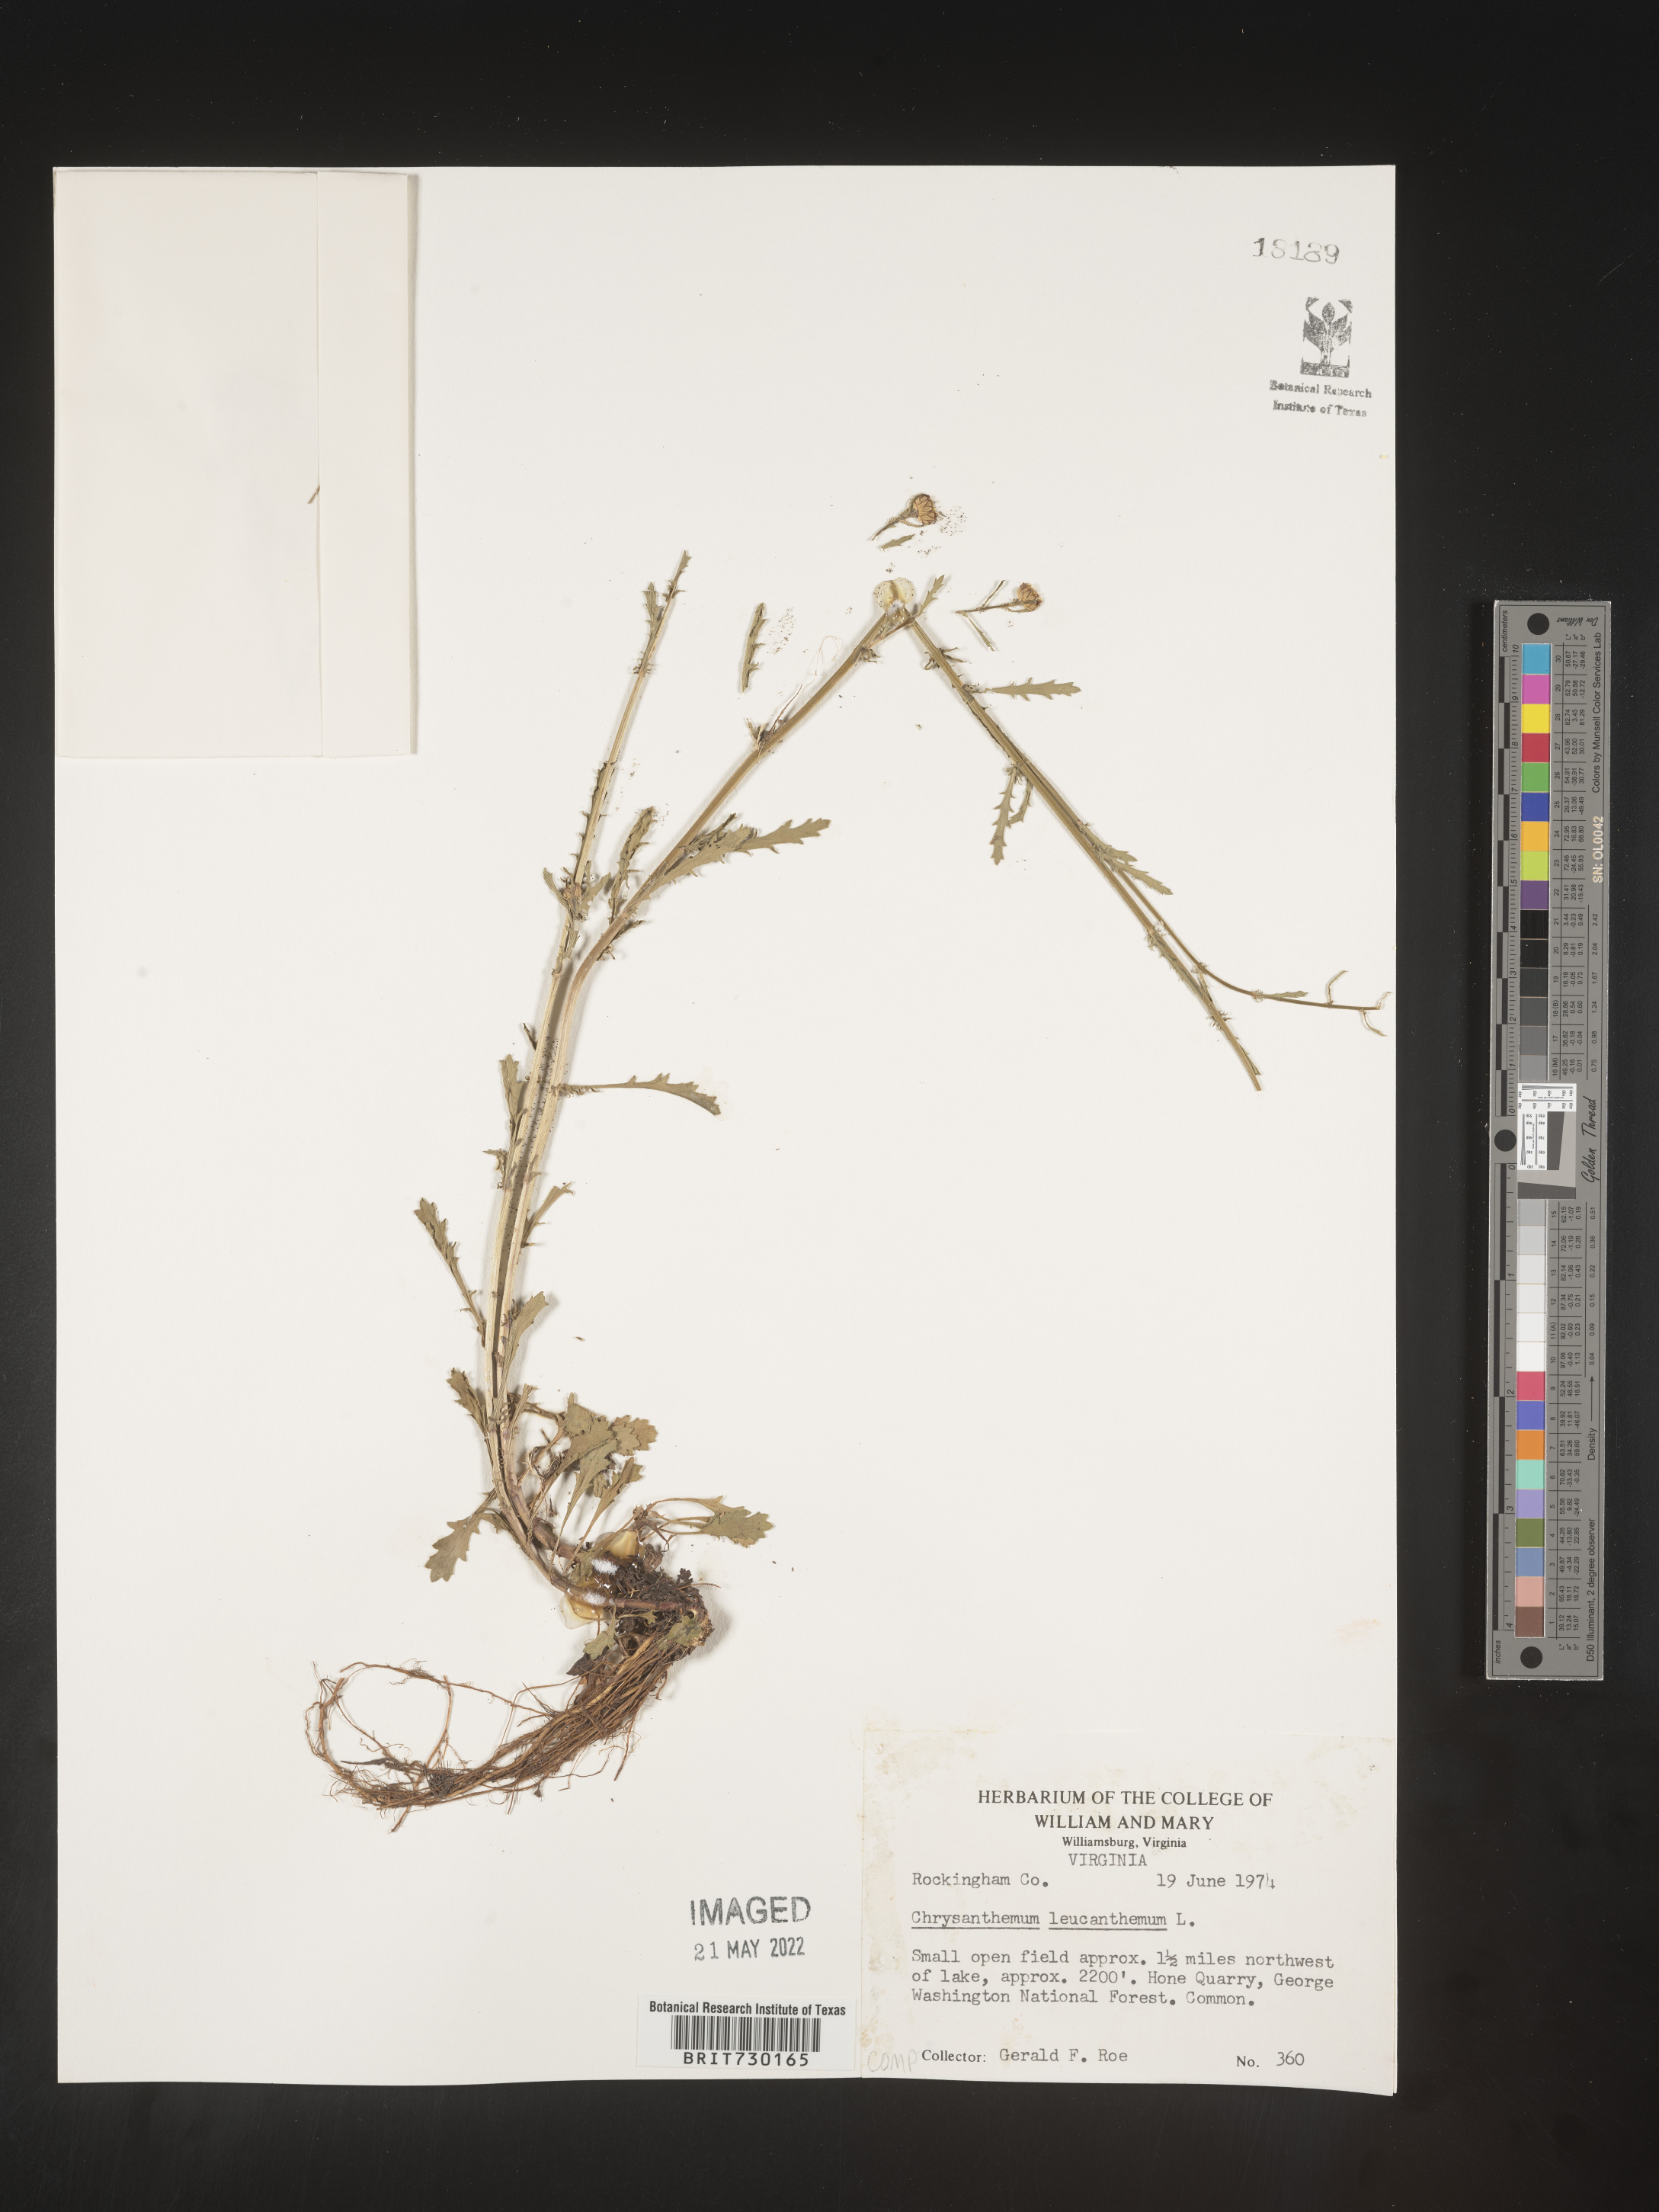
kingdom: Plantae
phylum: Tracheophyta
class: Magnoliopsida
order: Asterales
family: Asteraceae
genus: Leucanthemum
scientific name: Leucanthemum vulgare
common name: Oxeye daisy
